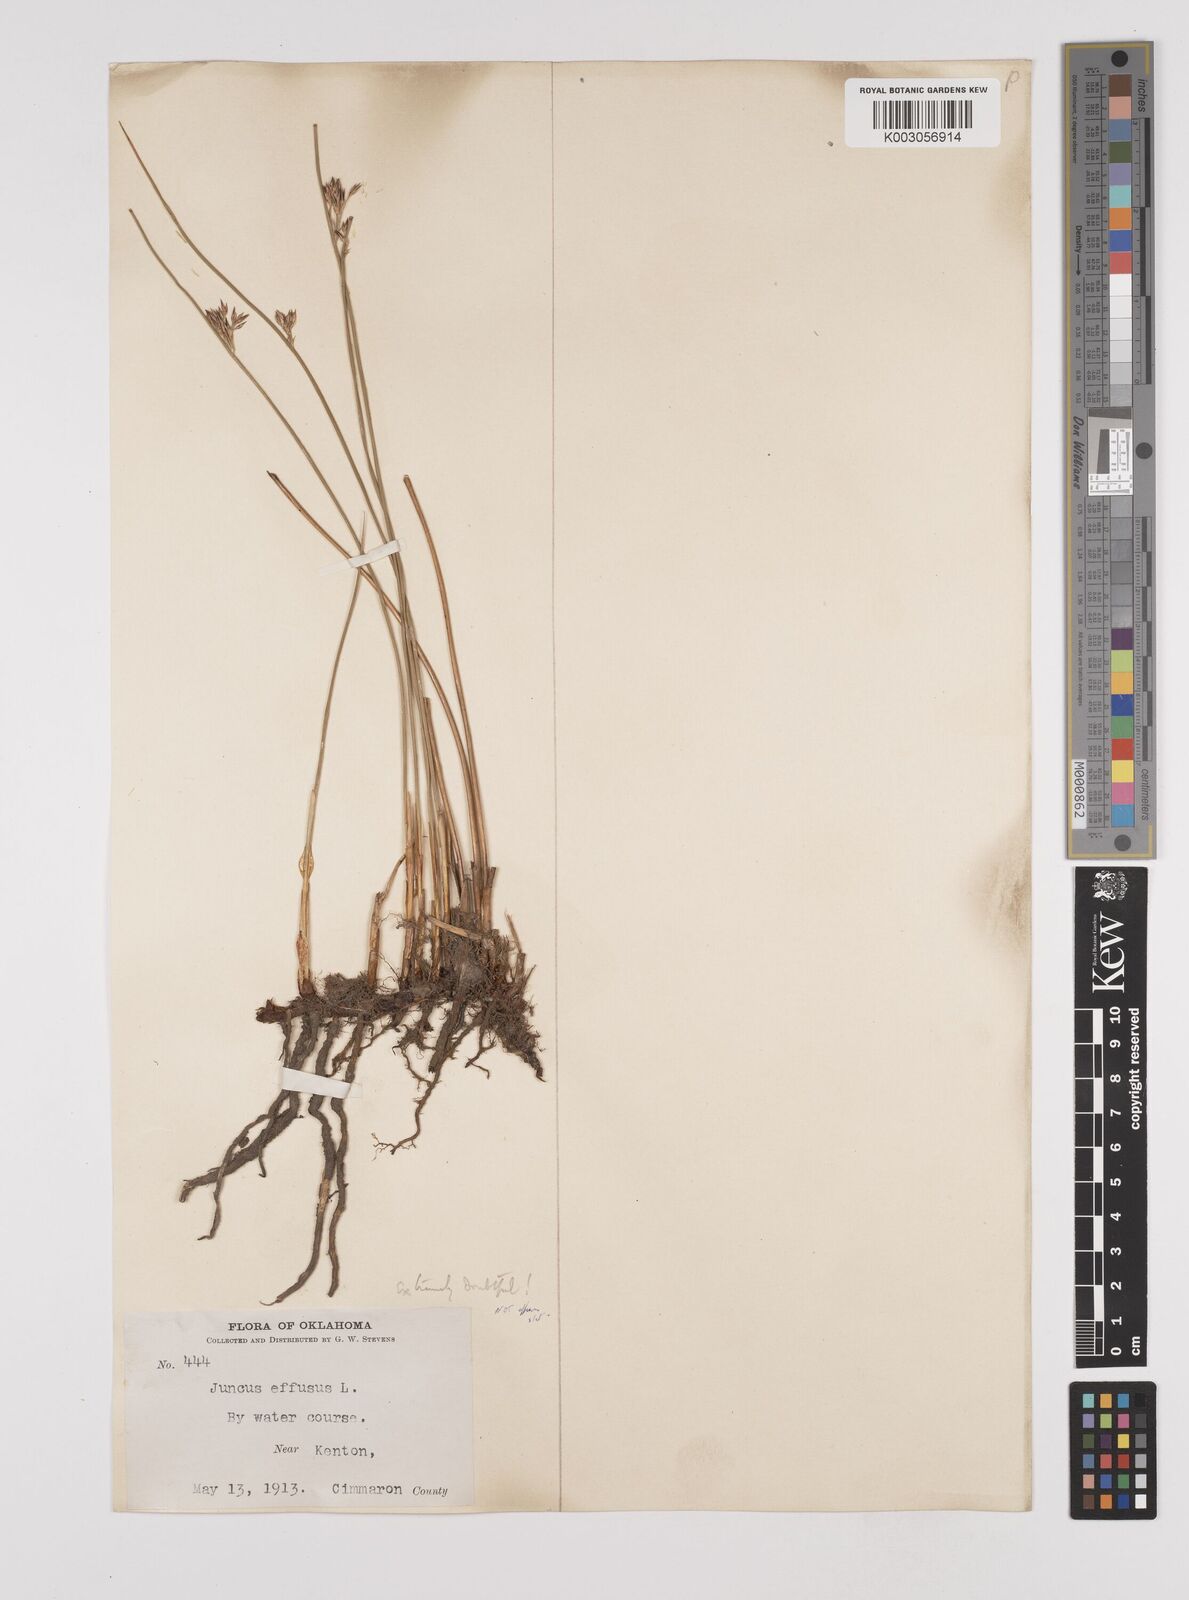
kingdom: Plantae
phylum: Tracheophyta
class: Liliopsida
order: Poales
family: Juncaceae
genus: Juncus
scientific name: Juncus arcticus
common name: Arctic rush
